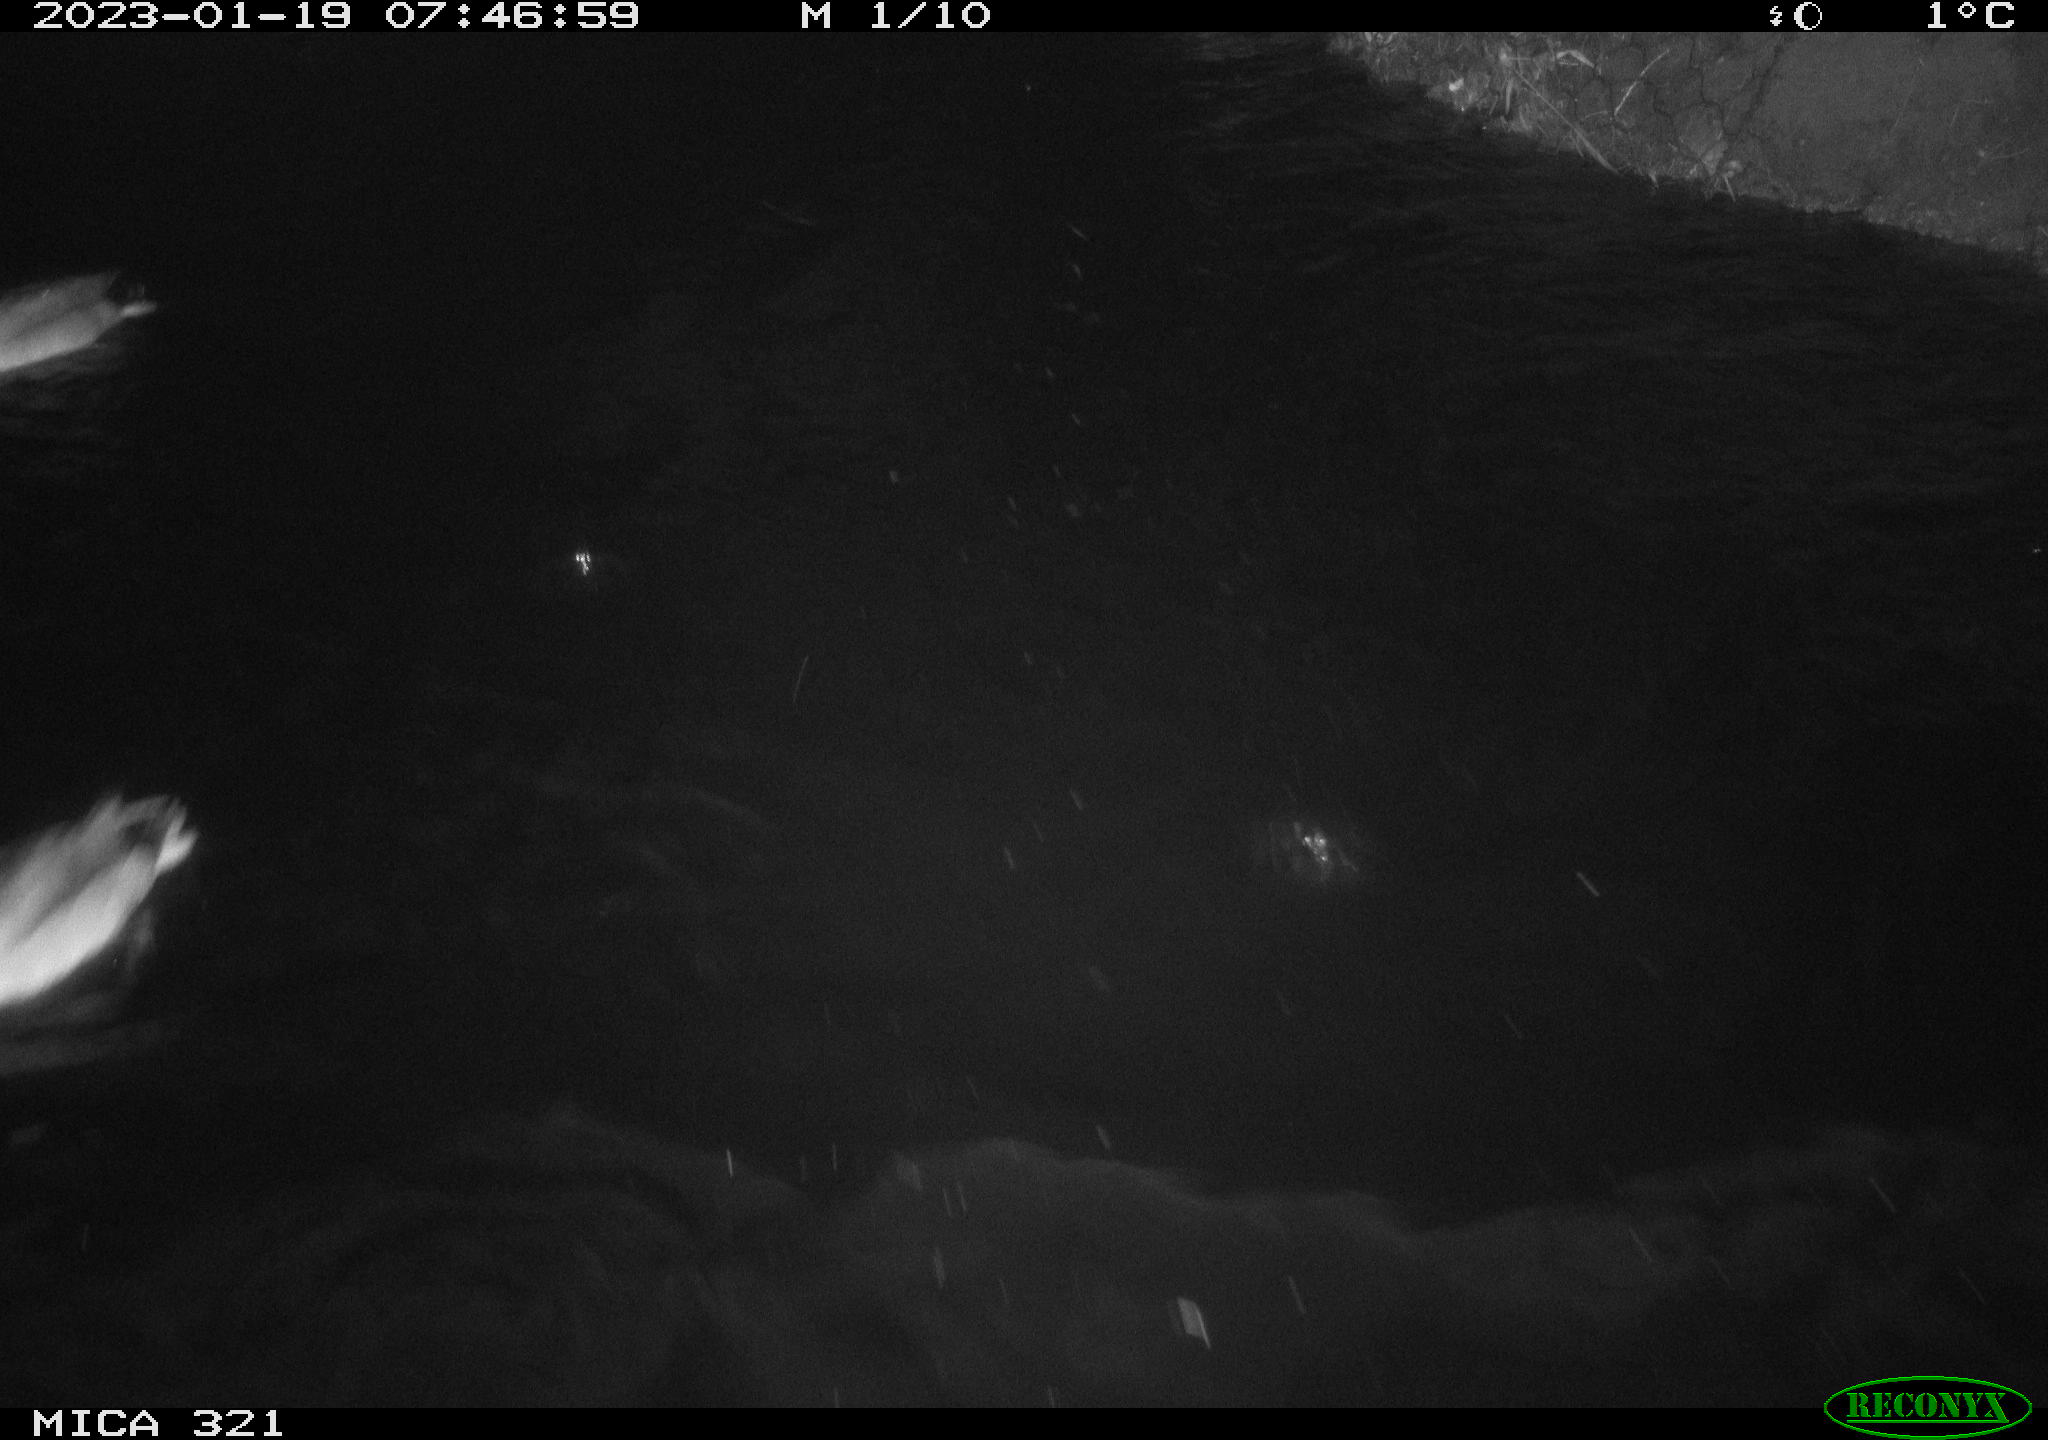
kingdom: Animalia
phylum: Chordata
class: Aves
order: Anseriformes
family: Anatidae
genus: Anas
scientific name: Anas
